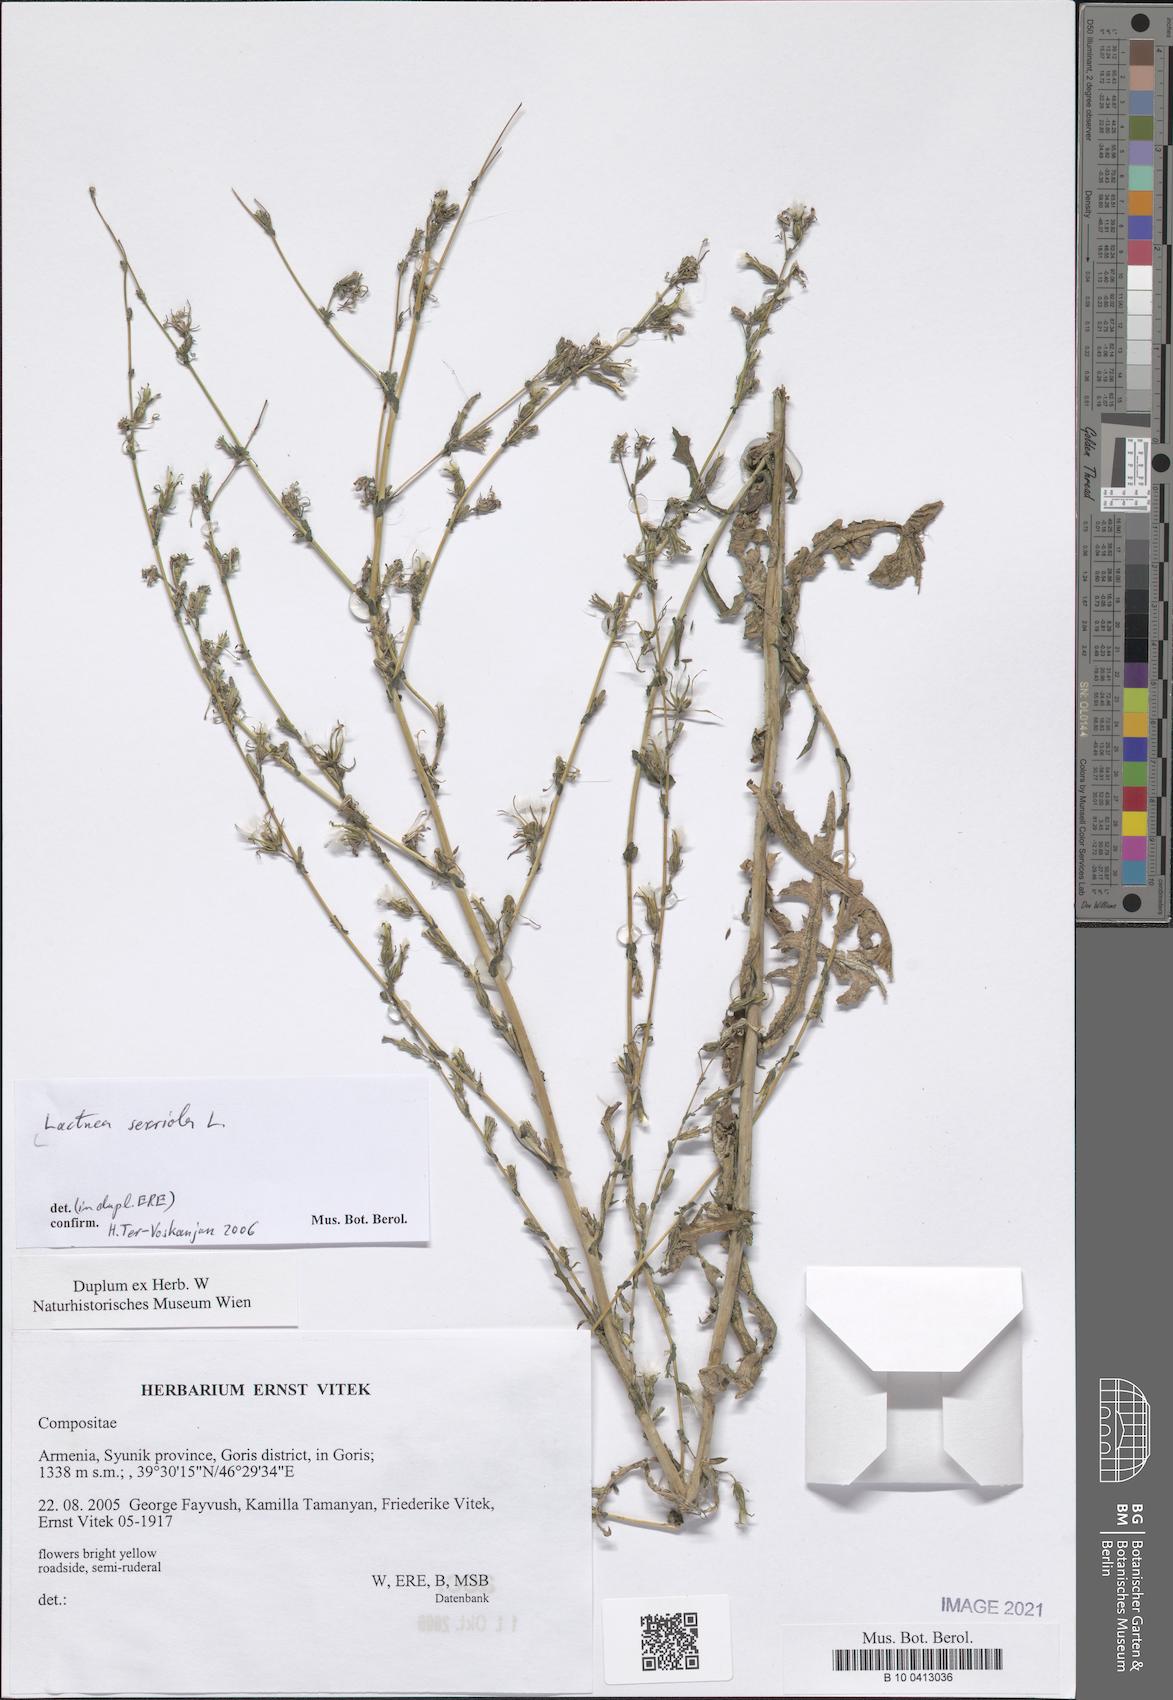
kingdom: Plantae
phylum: Tracheophyta
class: Magnoliopsida
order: Asterales
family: Asteraceae
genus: Lactuca
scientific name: Lactuca serriola
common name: Prickly lettuce
